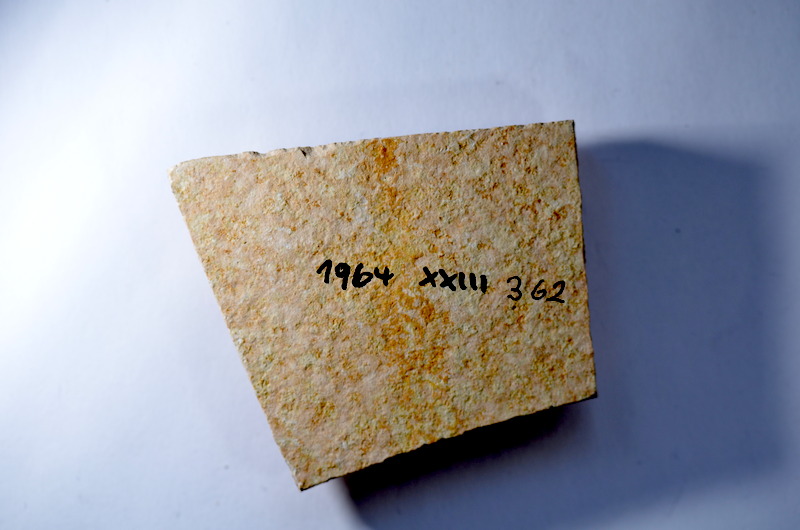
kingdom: Animalia
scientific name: Animalia
